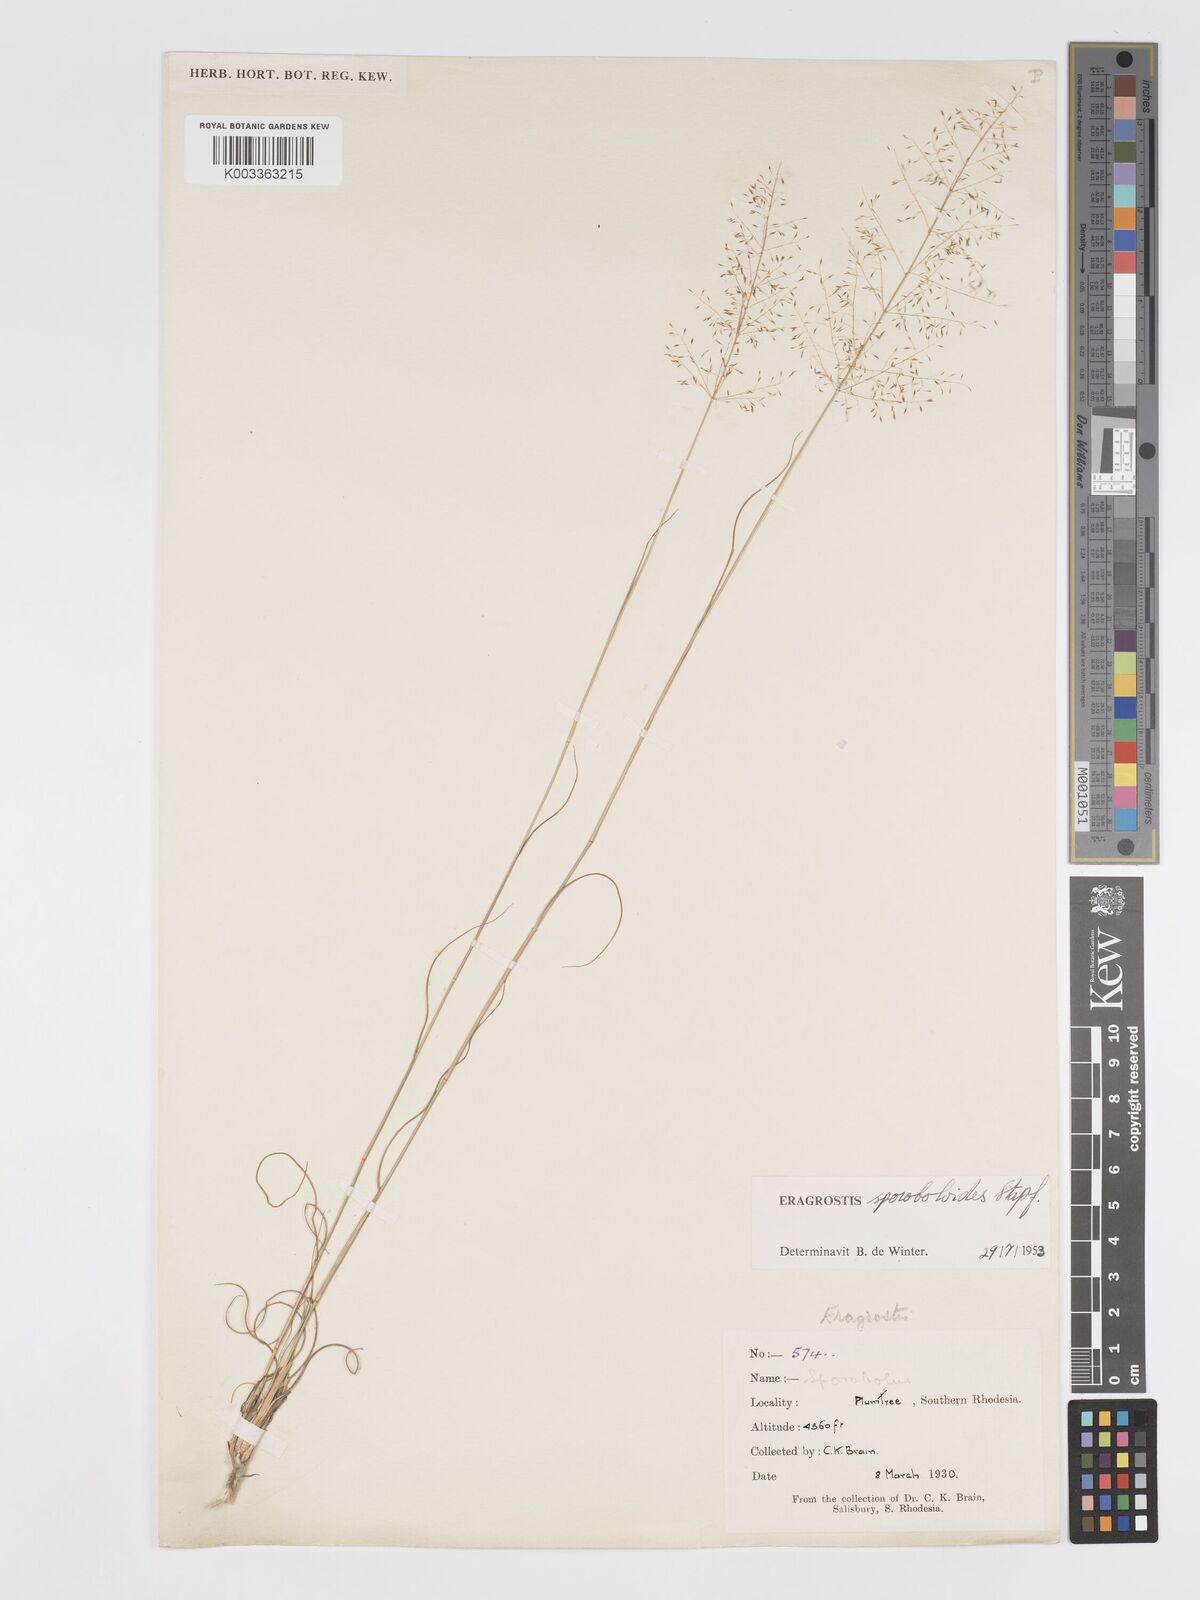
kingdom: Plantae
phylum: Tracheophyta
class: Liliopsida
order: Poales
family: Poaceae
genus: Eragrostis
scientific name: Eragrostis stapfii
